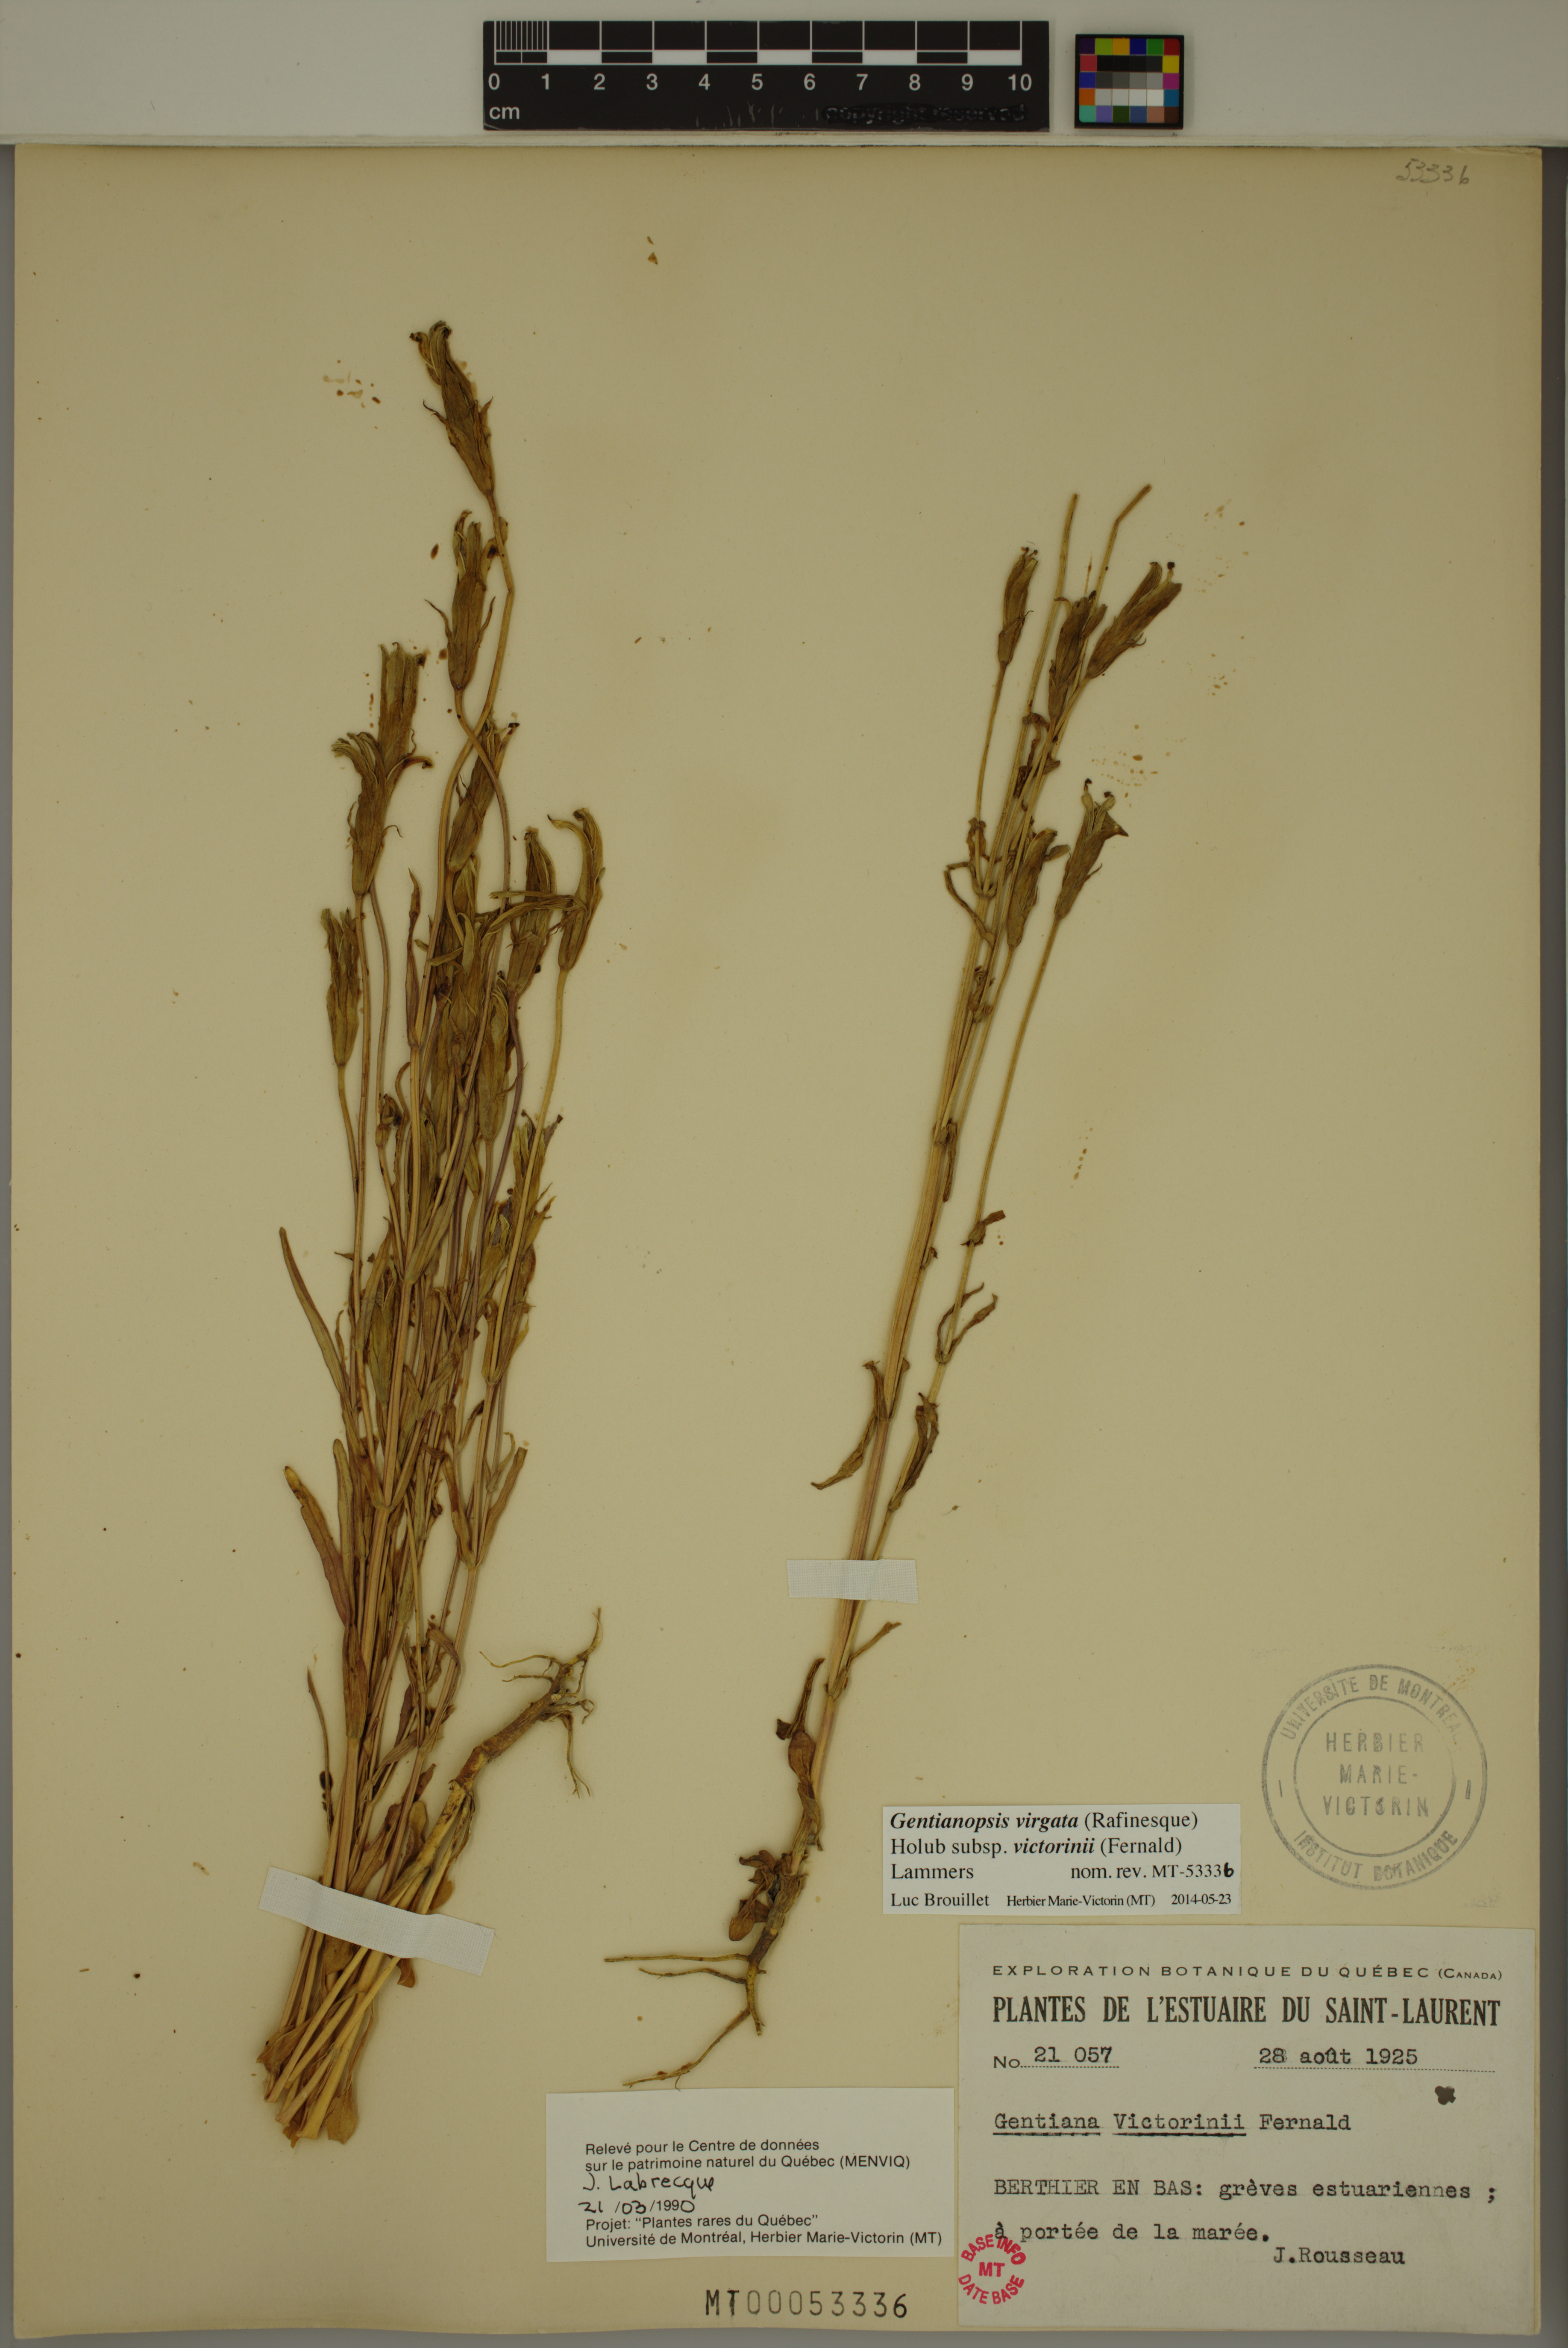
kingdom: Plantae
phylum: Tracheophyta
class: Magnoliopsida
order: Gentianales
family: Gentianaceae
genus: Gentianopsis
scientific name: Gentianopsis victorinii
